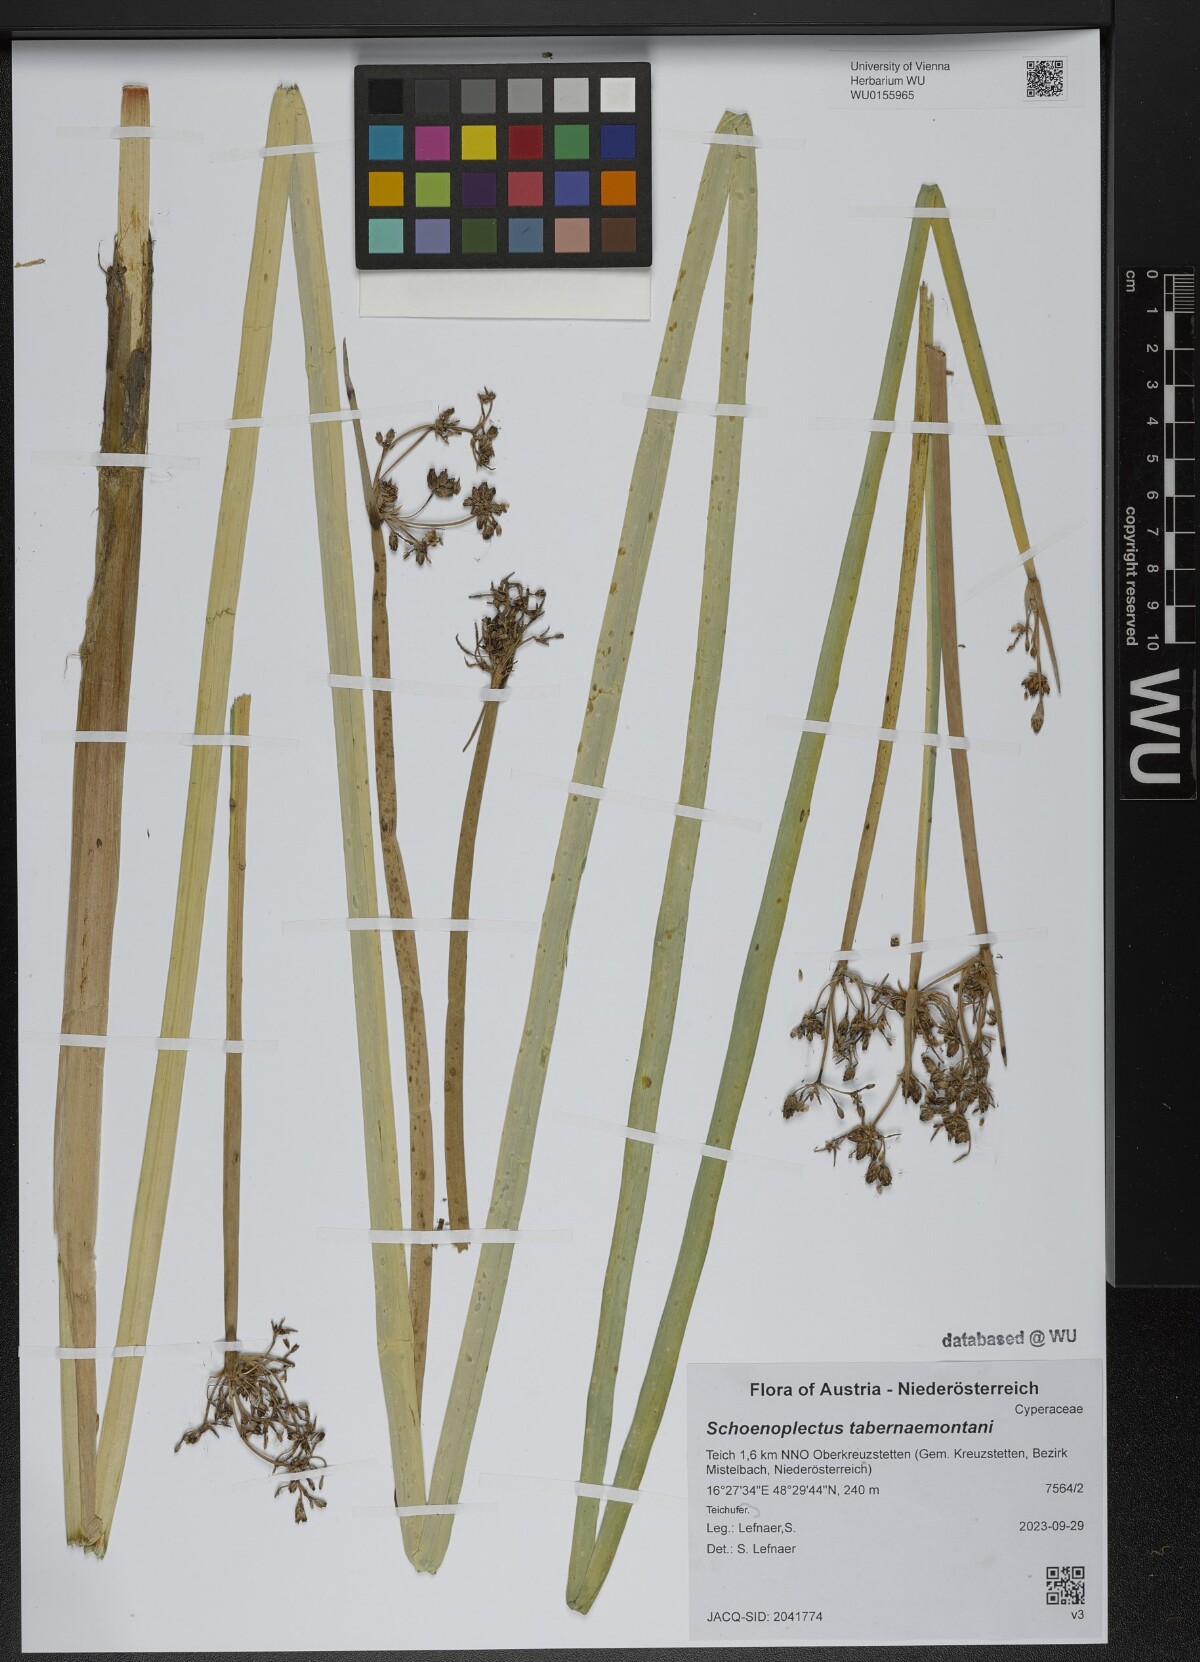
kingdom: Plantae
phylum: Tracheophyta
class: Liliopsida
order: Poales
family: Cyperaceae
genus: Schoenoplectus
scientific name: Schoenoplectus tabernaemontani
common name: Grey club-rush
